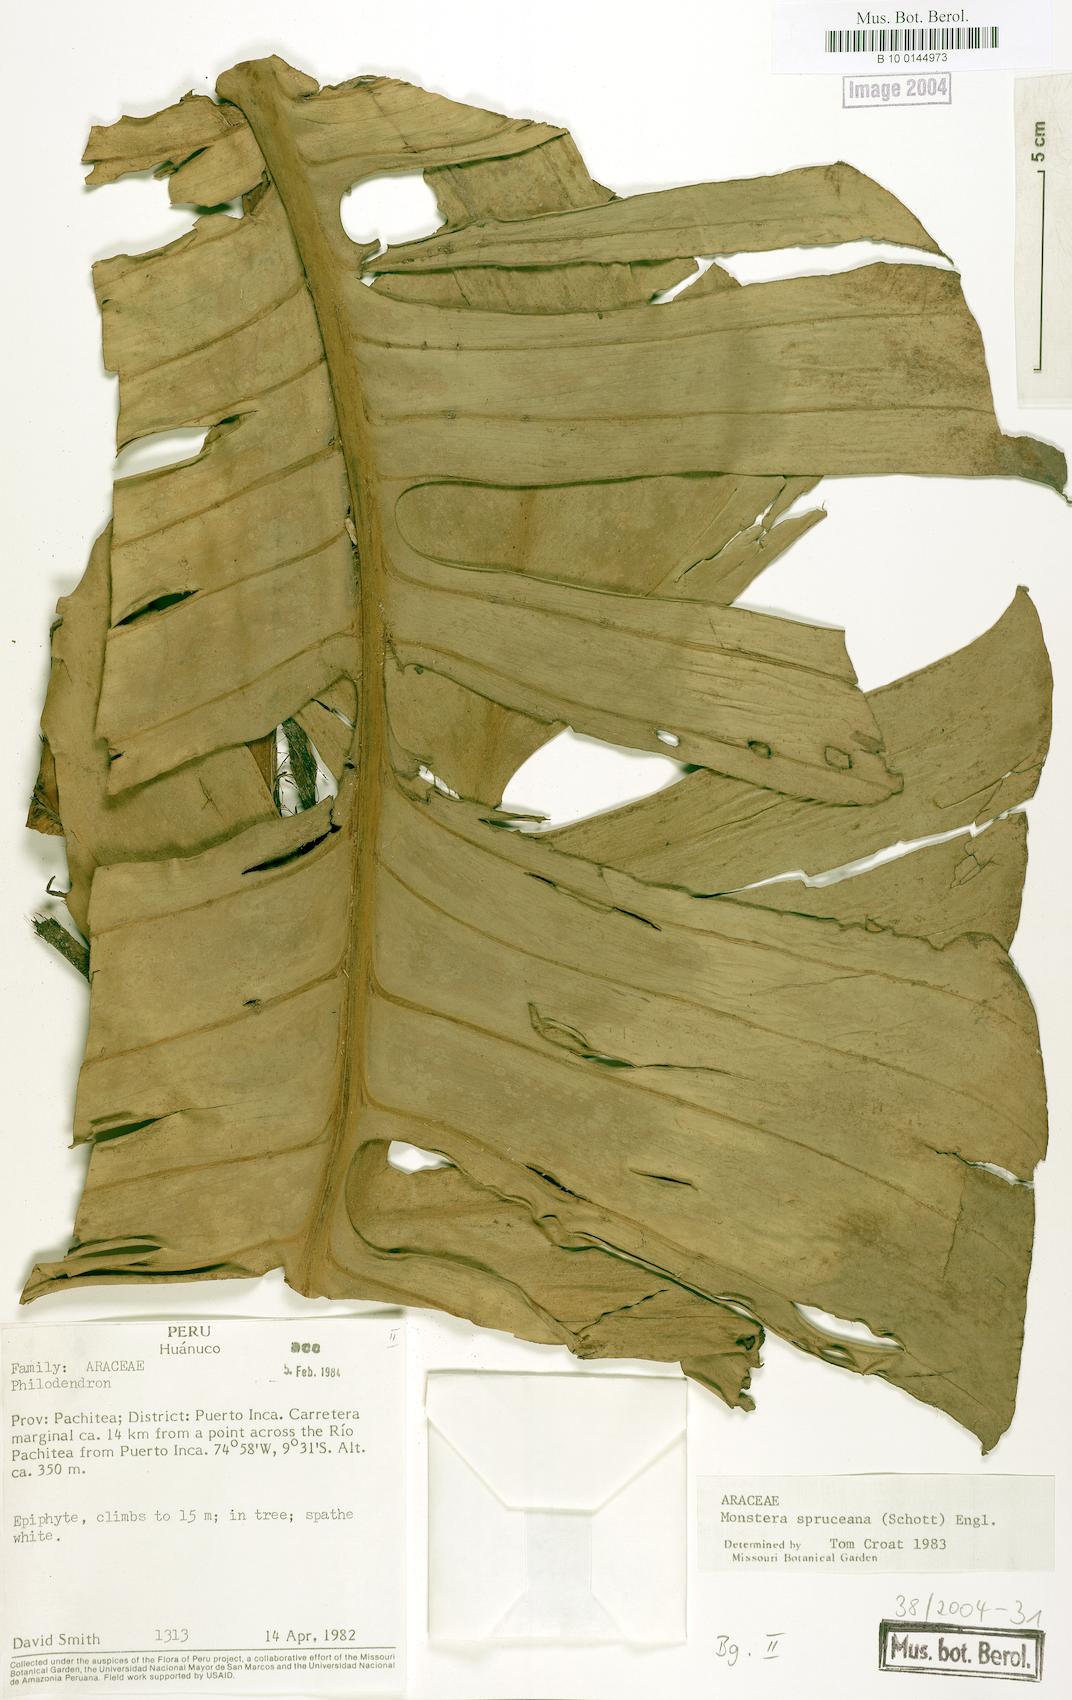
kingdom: Plantae
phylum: Tracheophyta
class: Liliopsida
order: Alismatales
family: Araceae
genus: Monstera
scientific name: Monstera spruceana
